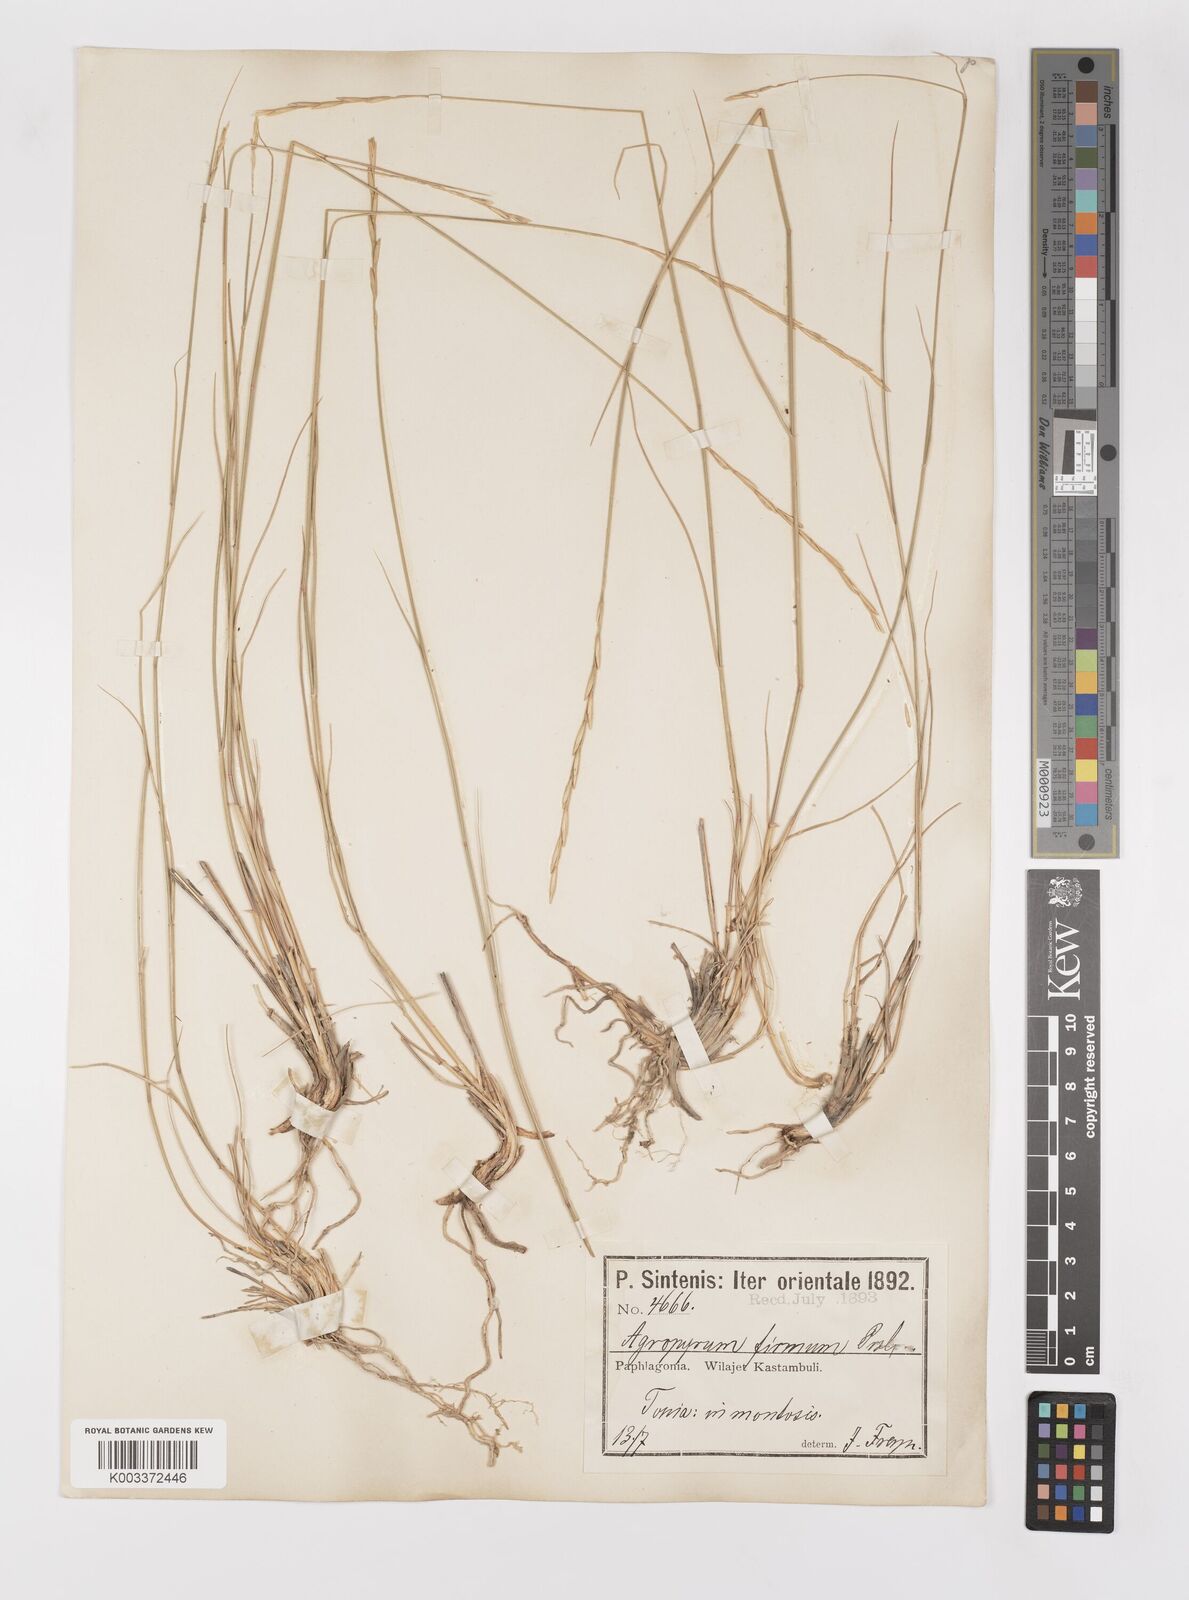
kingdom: Plantae
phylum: Tracheophyta
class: Liliopsida
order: Poales
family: Poaceae
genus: Elymus
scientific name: Elymus repens
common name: Quackgrass
